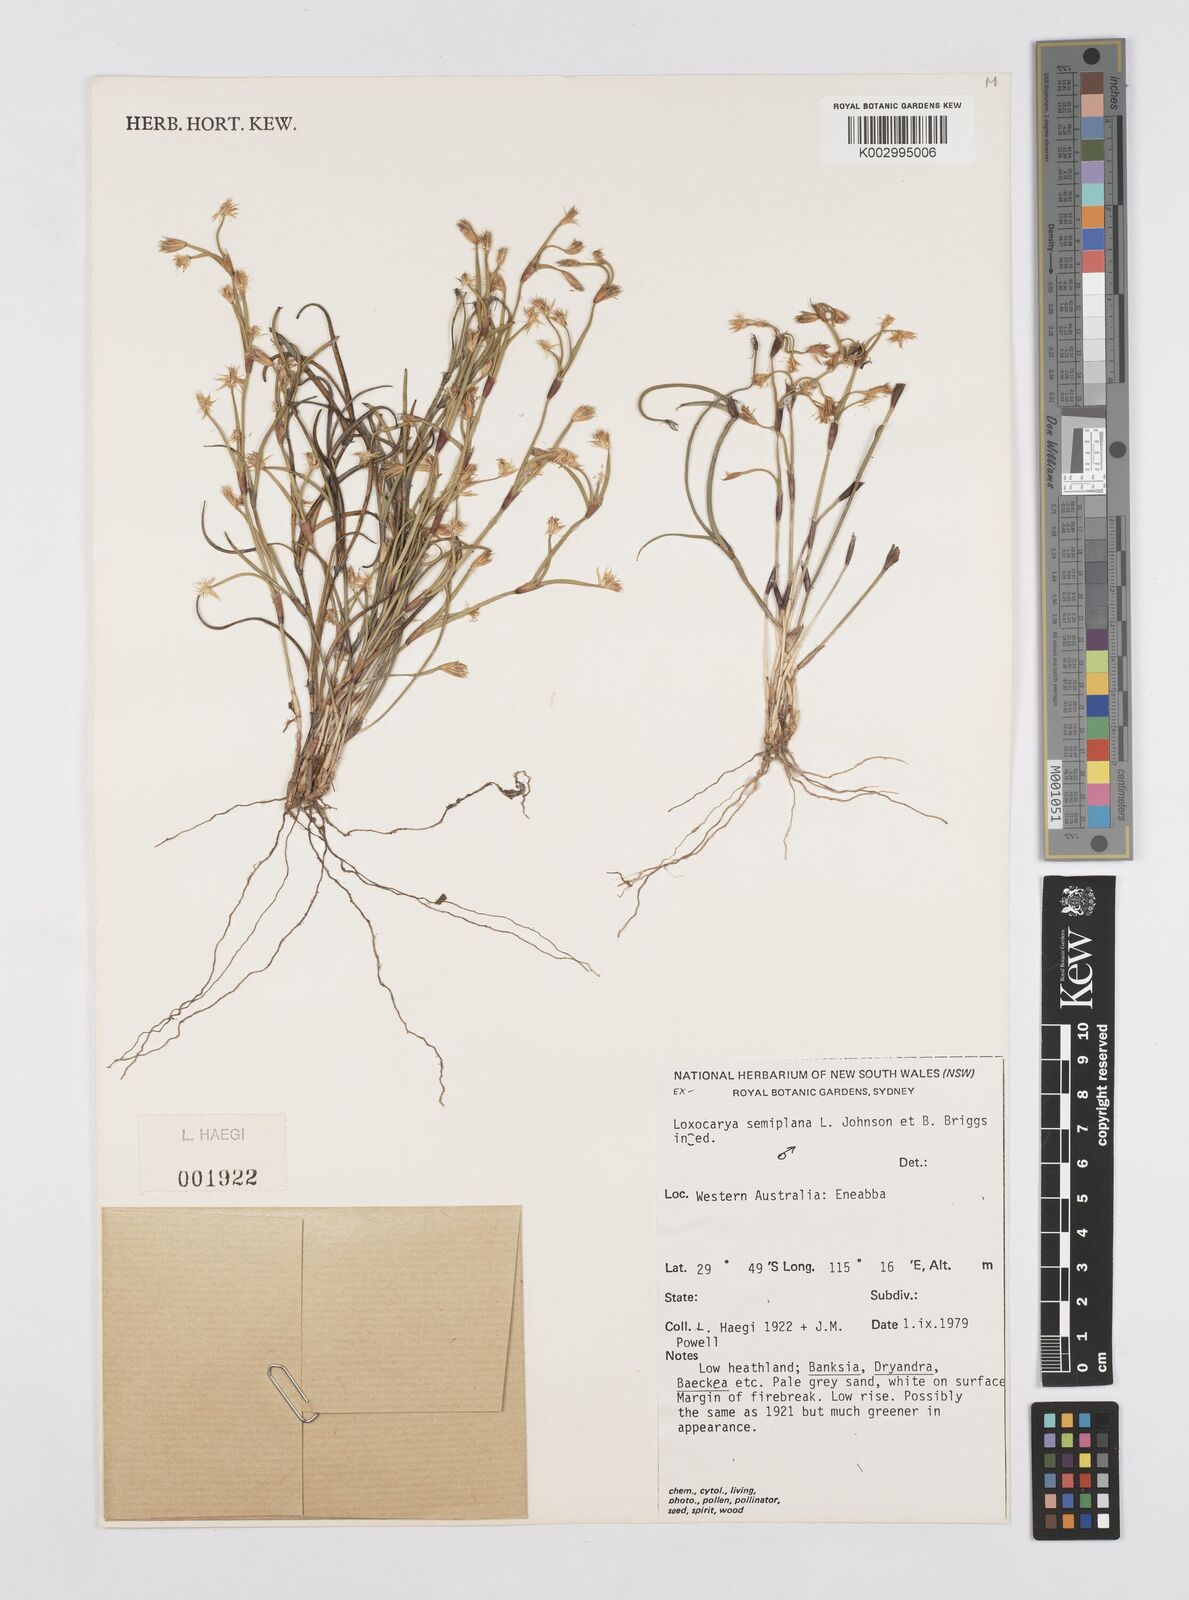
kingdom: Plantae
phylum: Tracheophyta
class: Liliopsida
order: Poales
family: Restionaceae
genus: Desmocladus
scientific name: Desmocladus semiplanus
